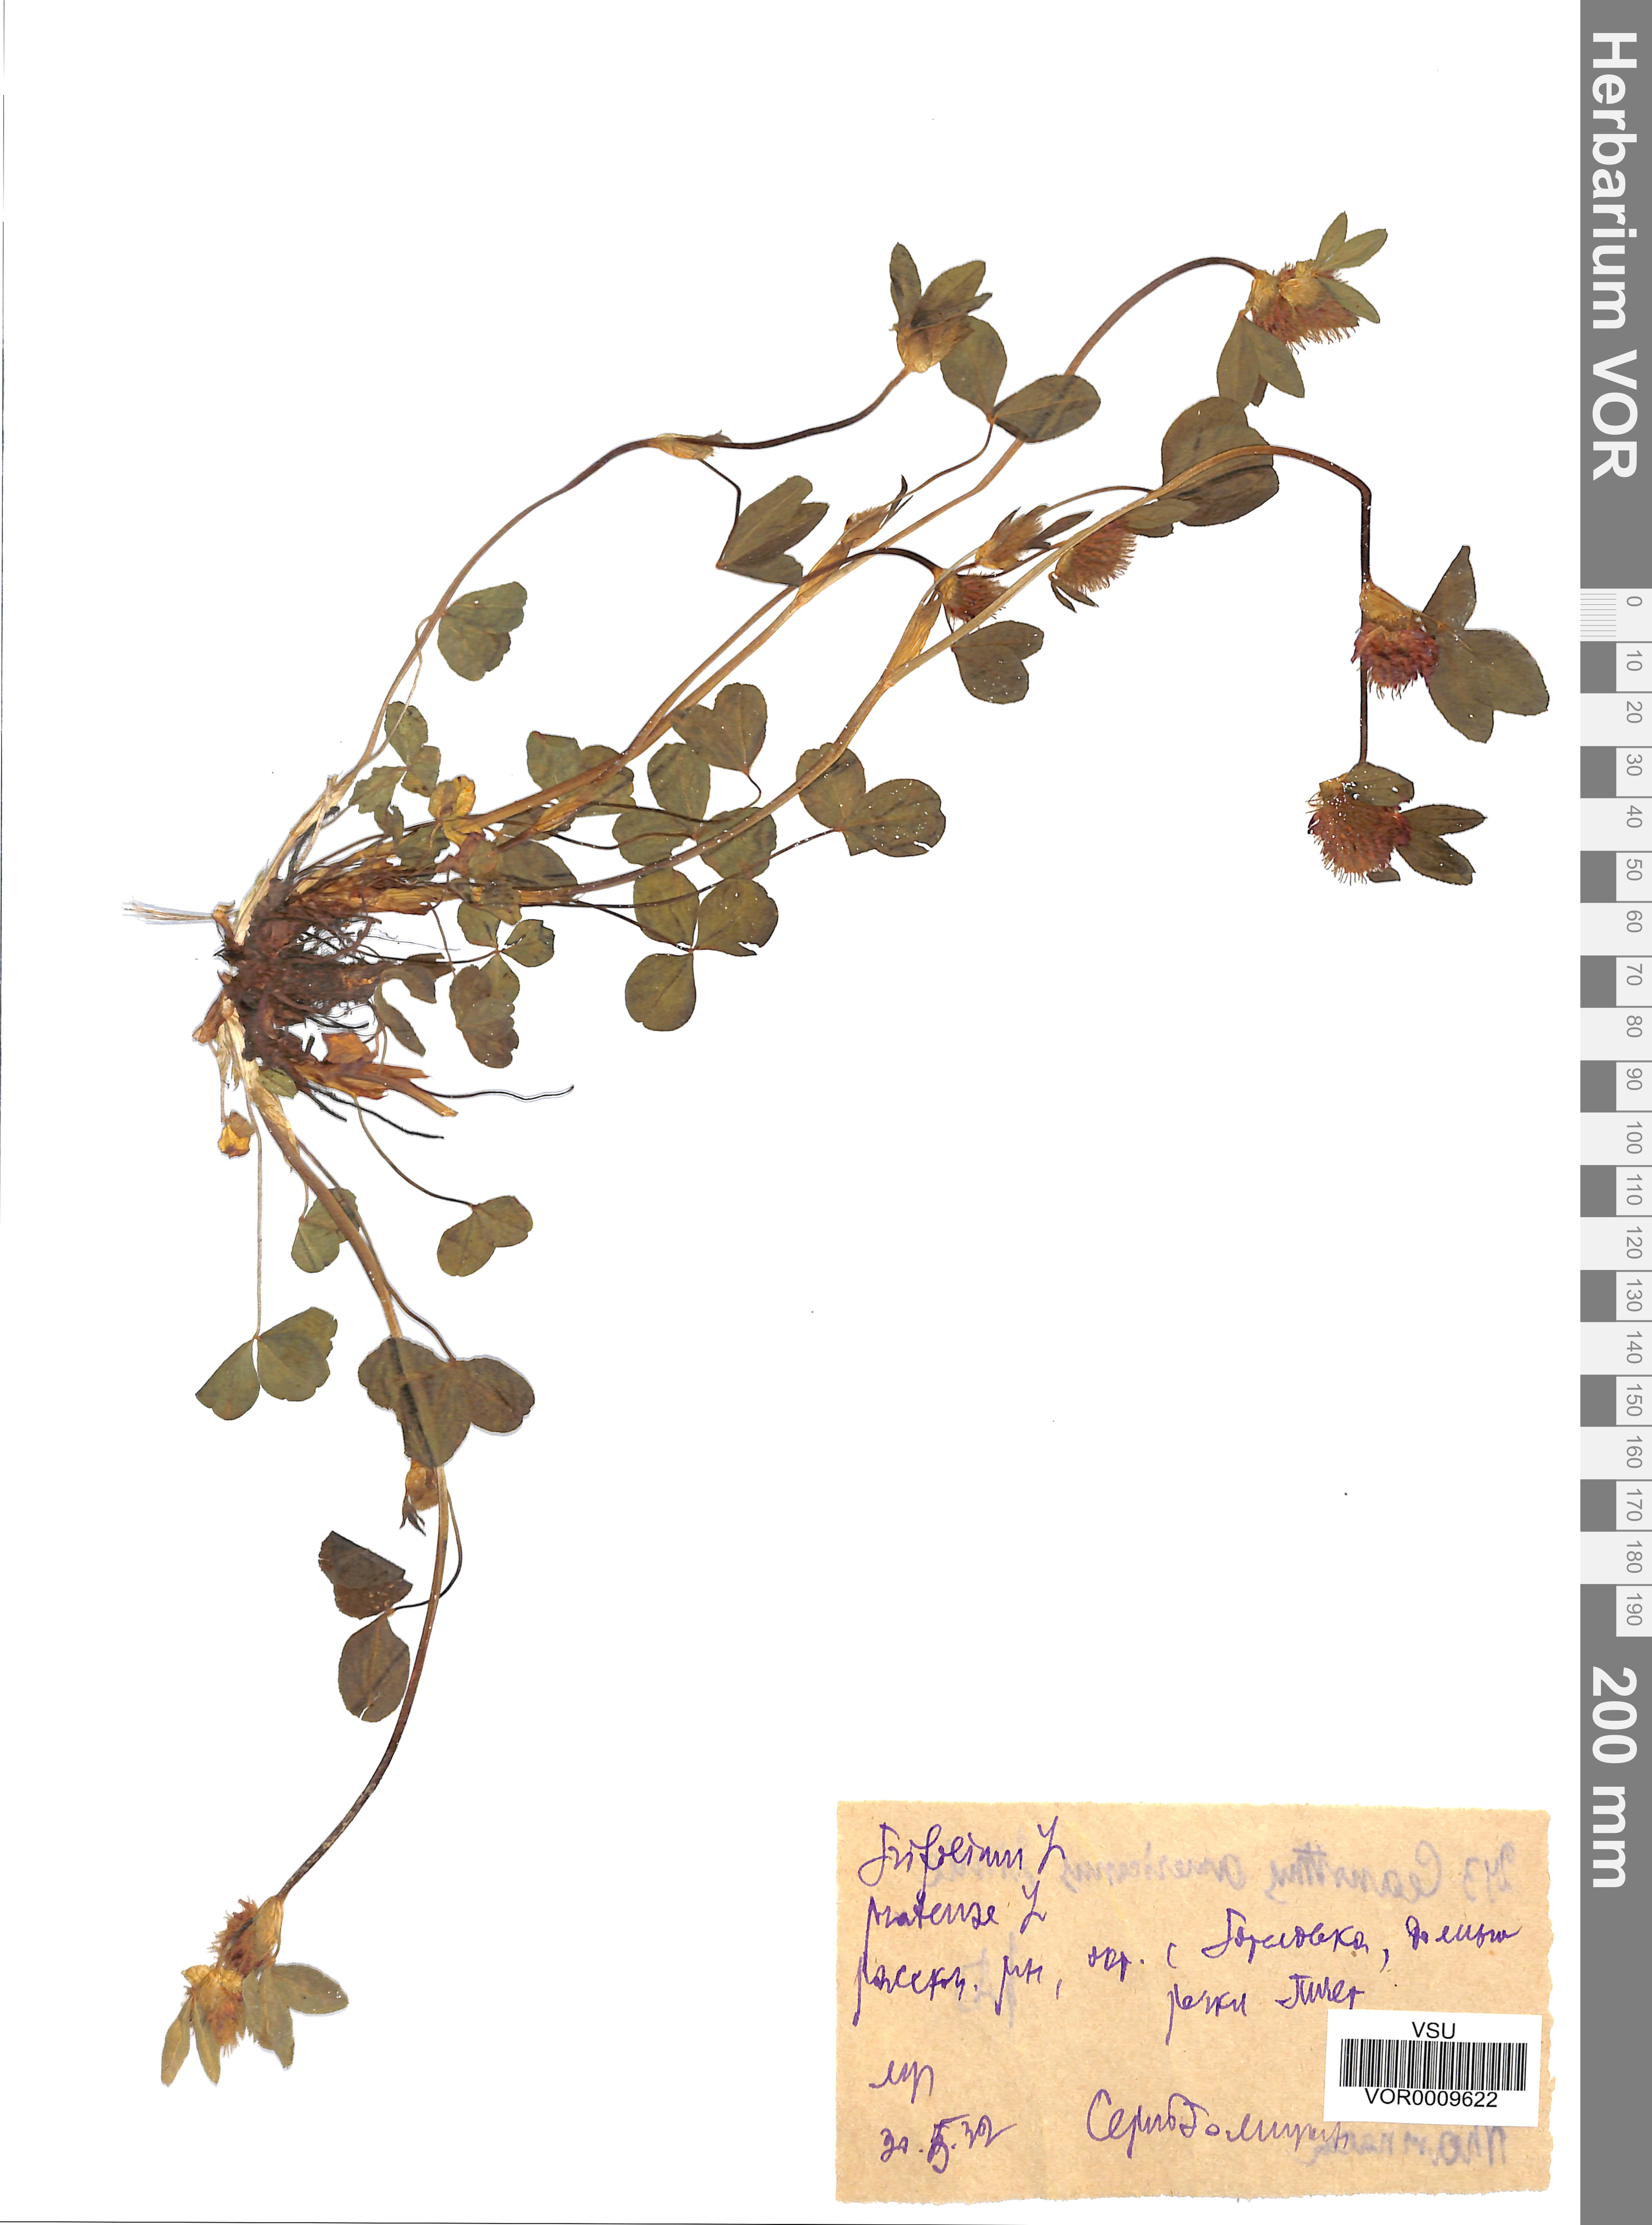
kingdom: Plantae
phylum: Tracheophyta
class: Magnoliopsida
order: Fabales
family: Fabaceae
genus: Trifolium
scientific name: Trifolium pratense
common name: Red clover
